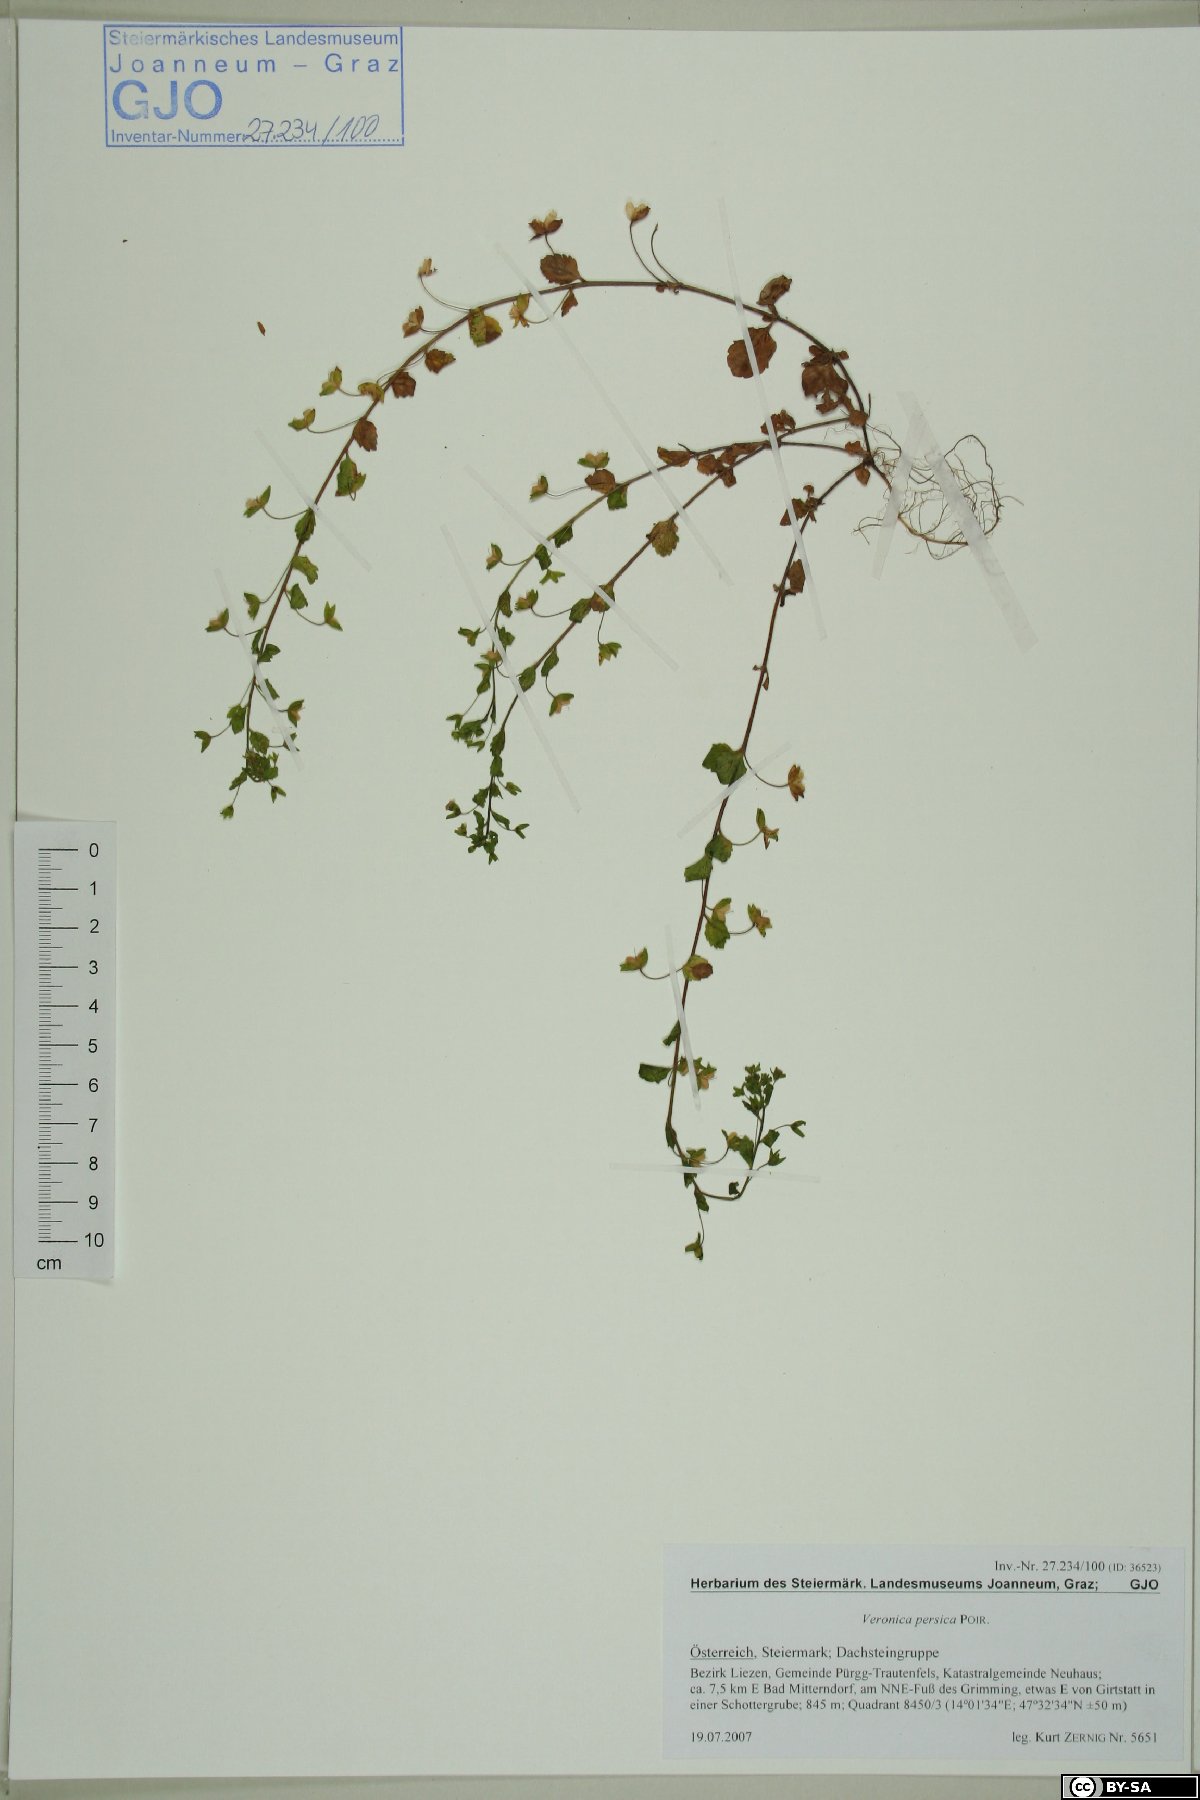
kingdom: Plantae
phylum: Tracheophyta
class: Magnoliopsida
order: Lamiales
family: Plantaginaceae
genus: Veronica
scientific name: Veronica persica
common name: Common field-speedwell
